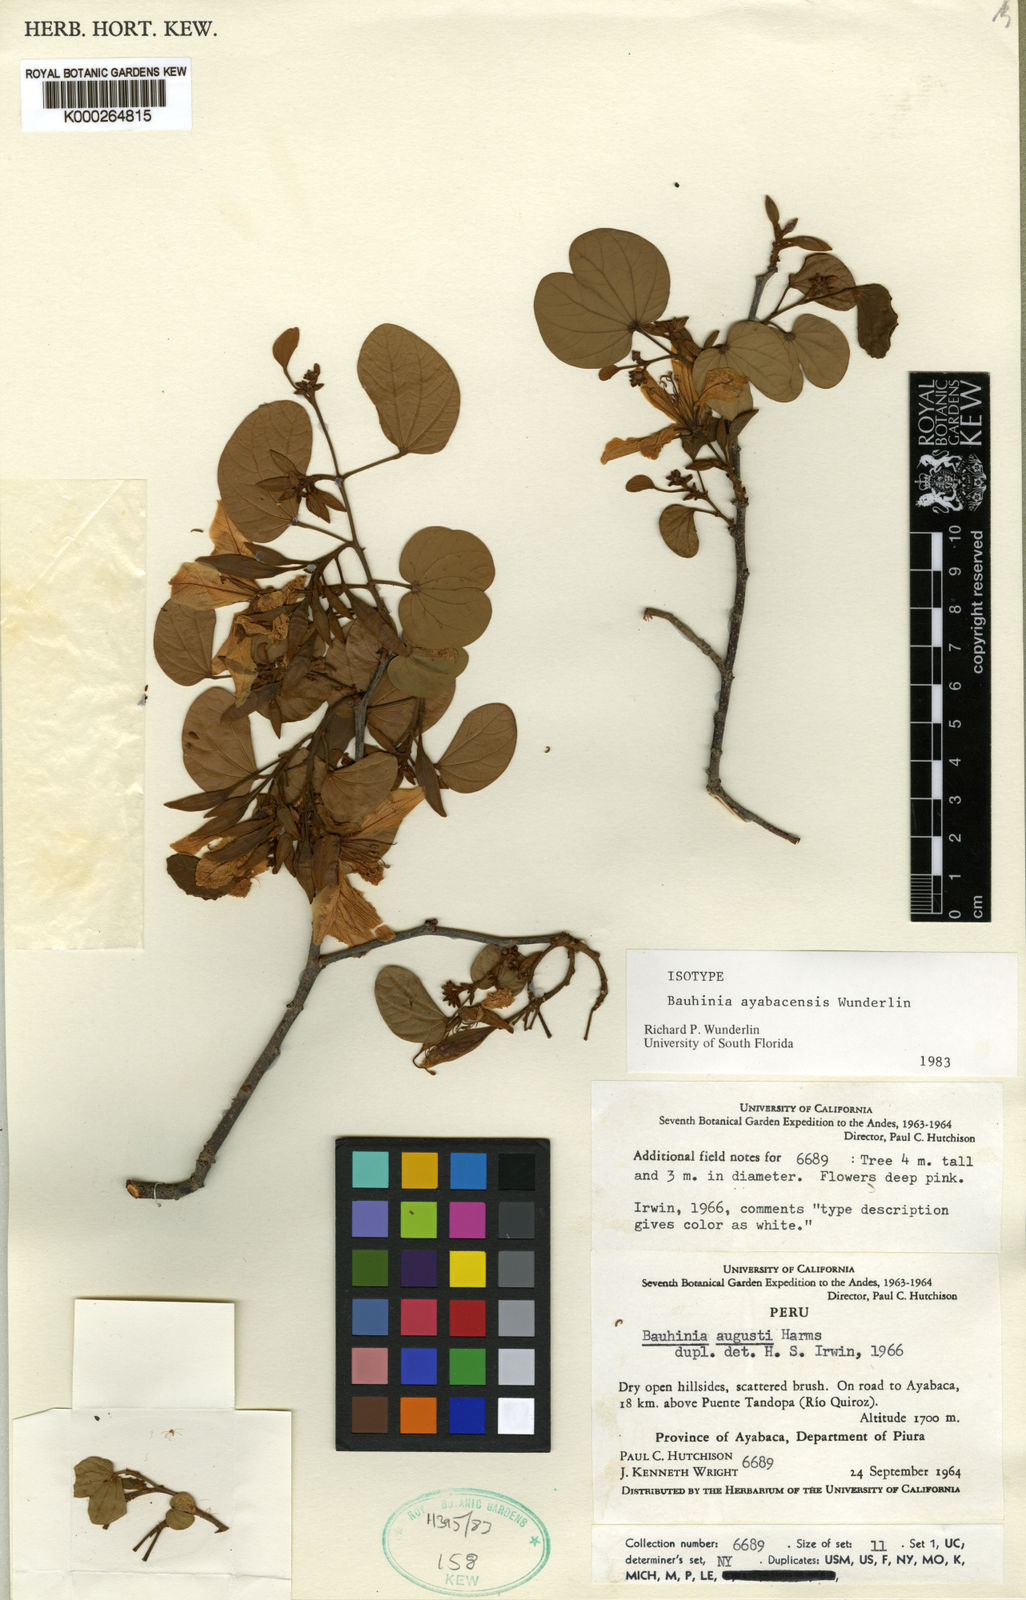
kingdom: Plantae
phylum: Tracheophyta
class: Magnoliopsida
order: Fabales
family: Fabaceae
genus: Bauhinia
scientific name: Bauhinia ayabacensis
